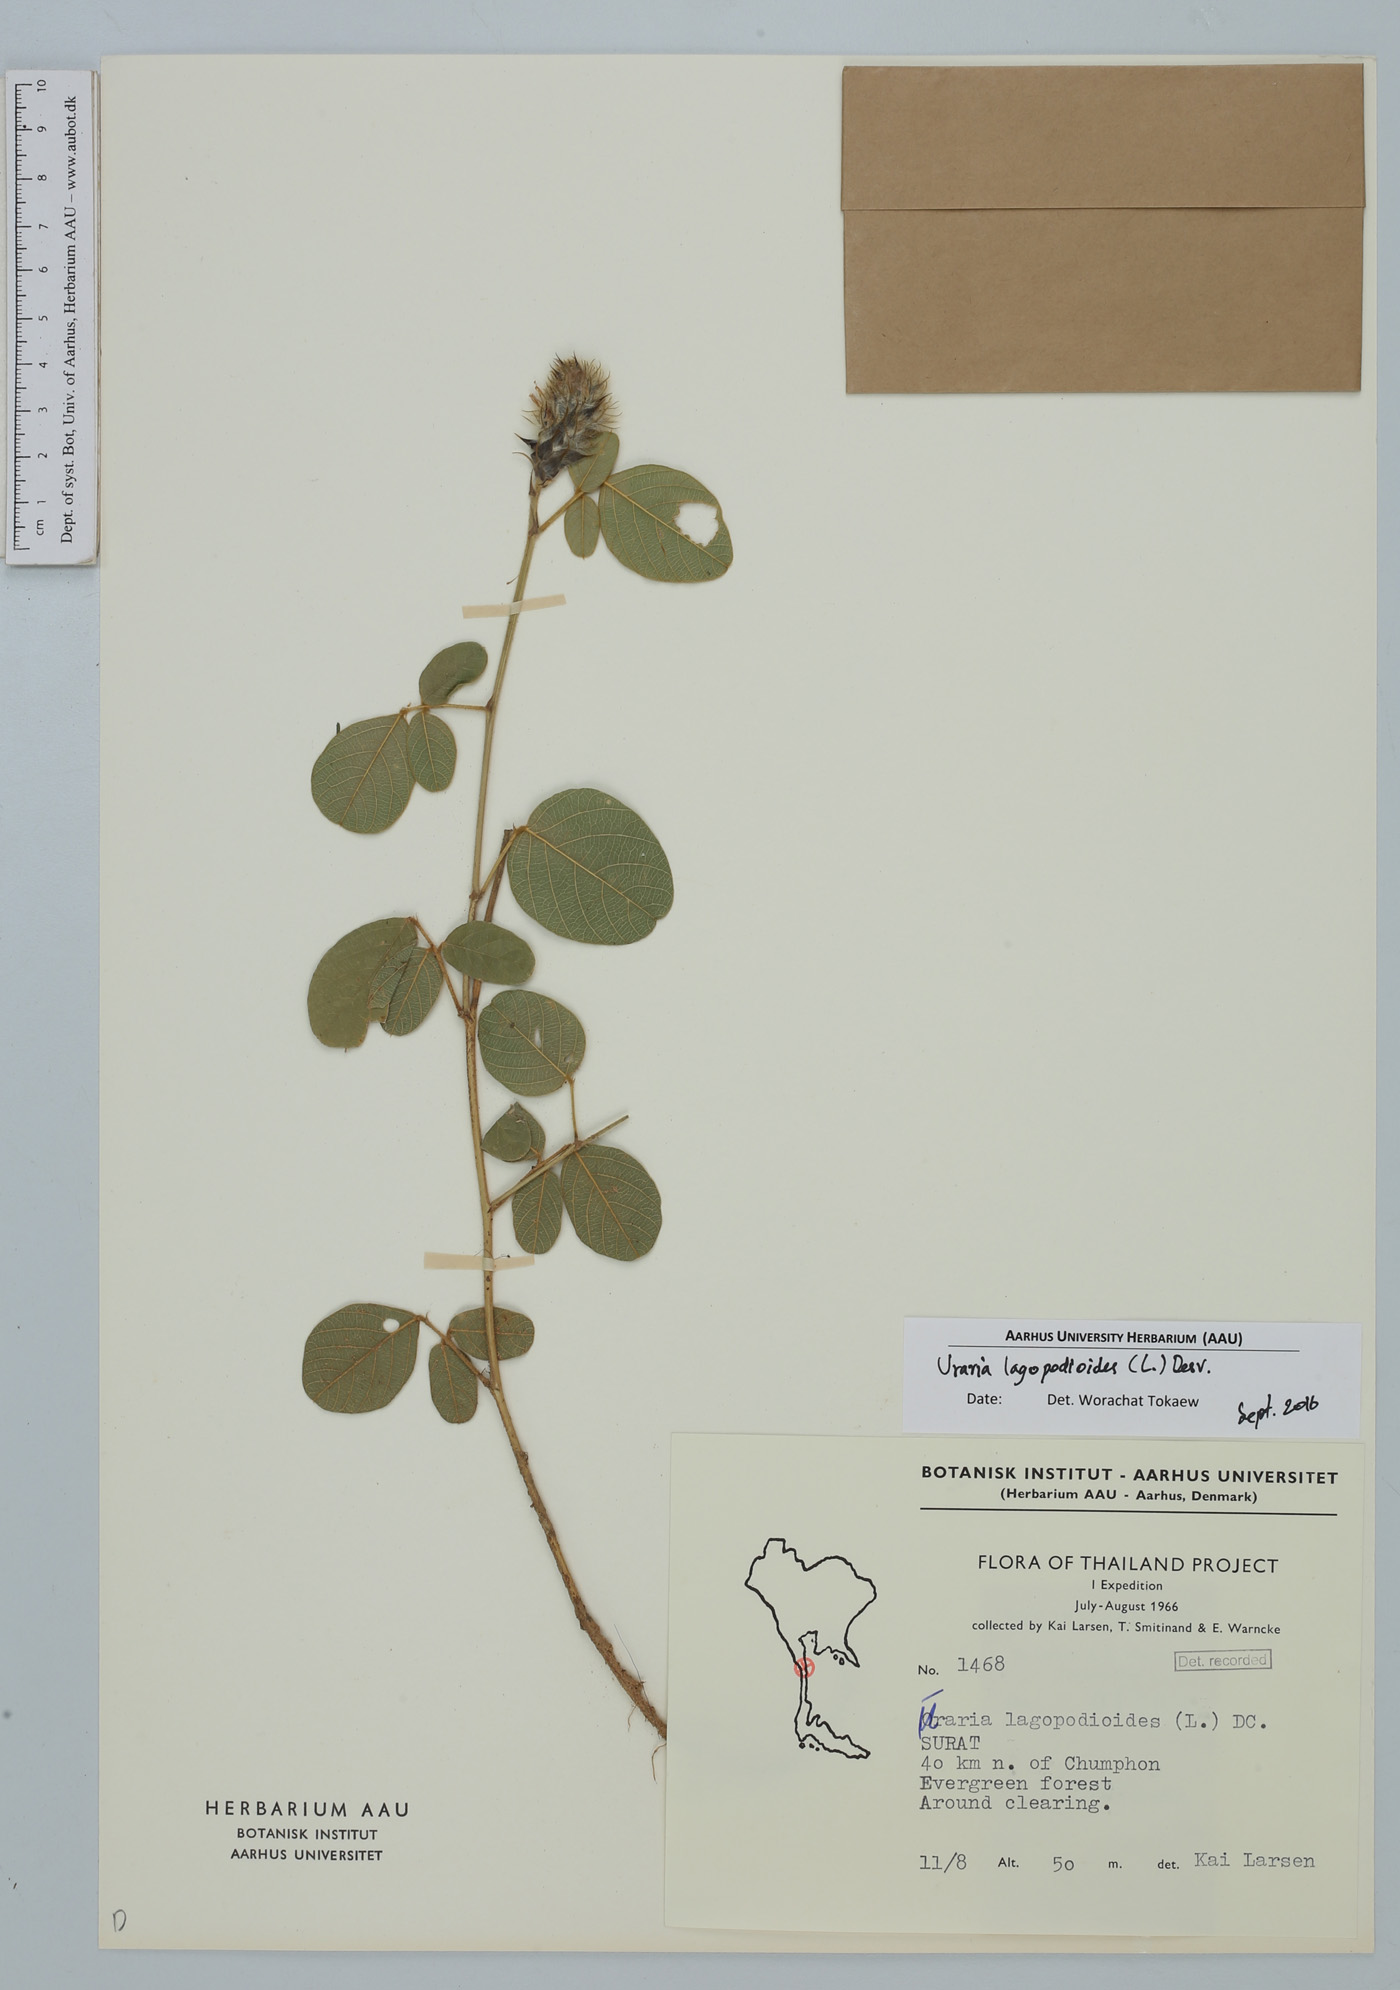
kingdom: Plantae
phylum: Tracheophyta
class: Magnoliopsida
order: Fabales
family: Fabaceae
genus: Uraria
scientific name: Uraria lagopodioides
